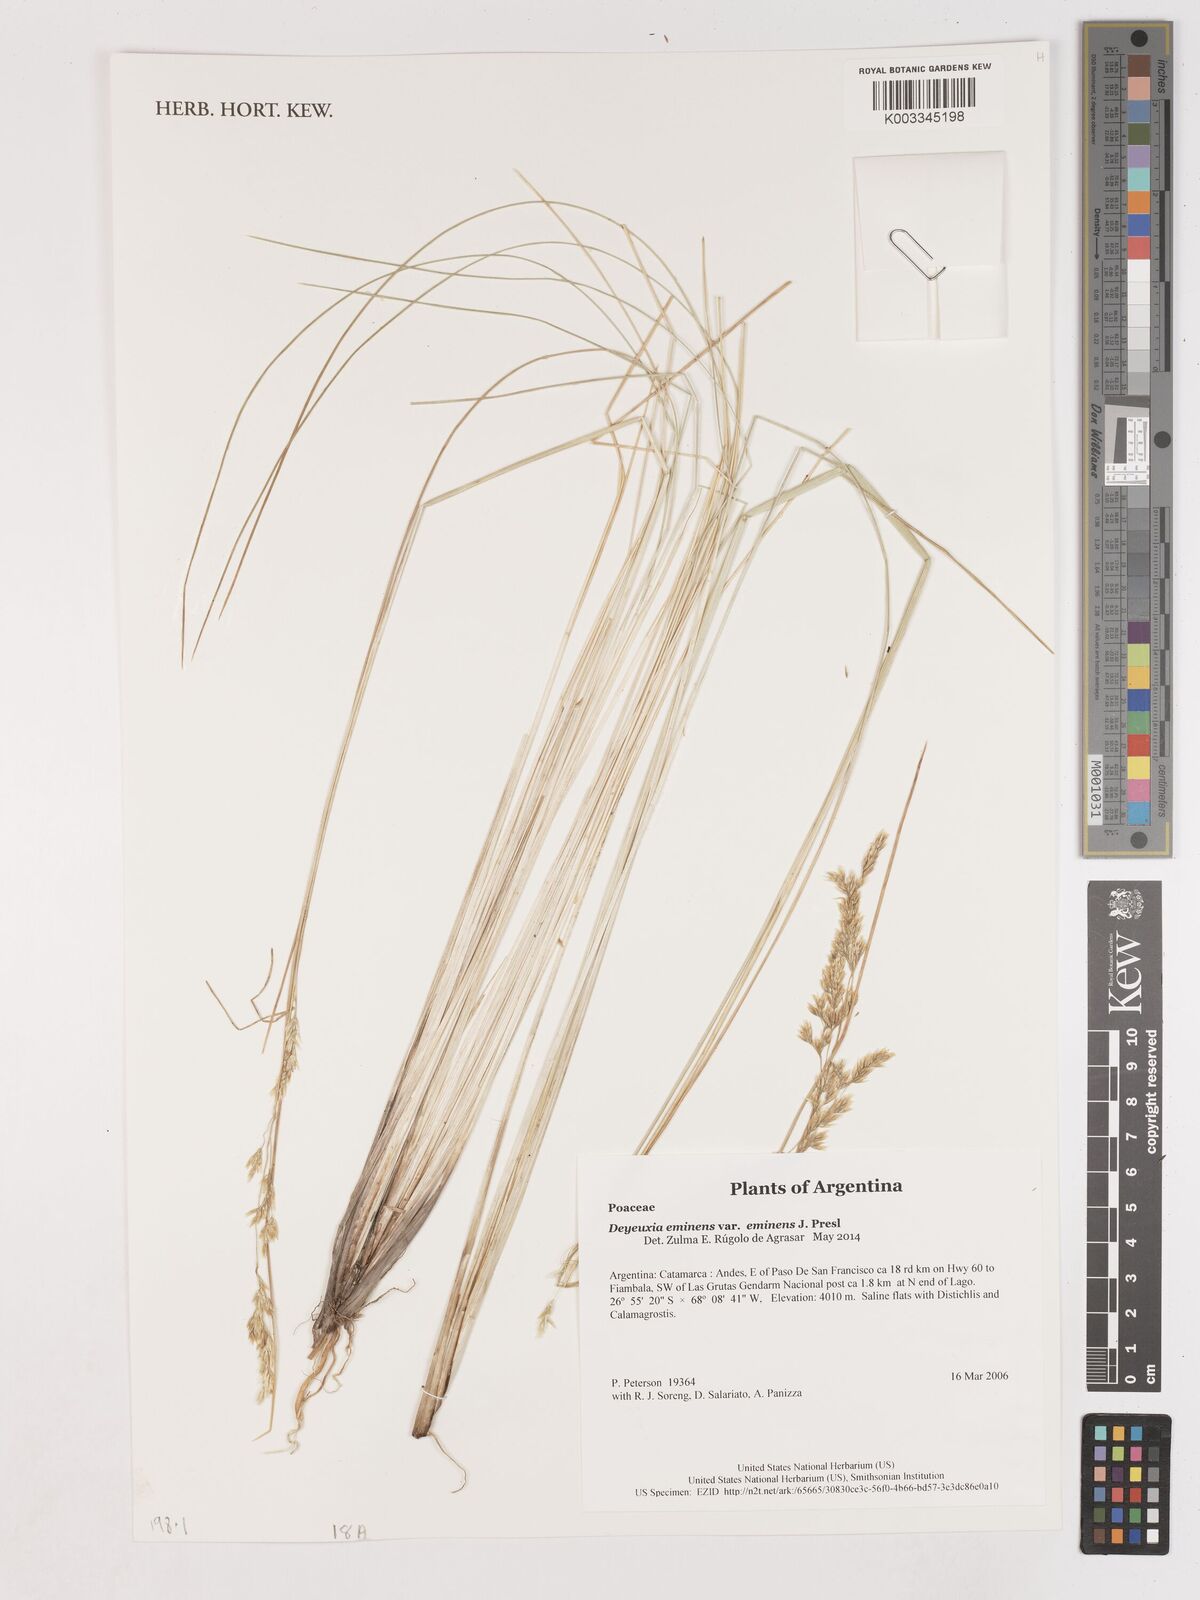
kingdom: Plantae
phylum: Tracheophyta
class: Liliopsida
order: Poales
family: Poaceae
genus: Deschampsia
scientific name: Deschampsia eminens
